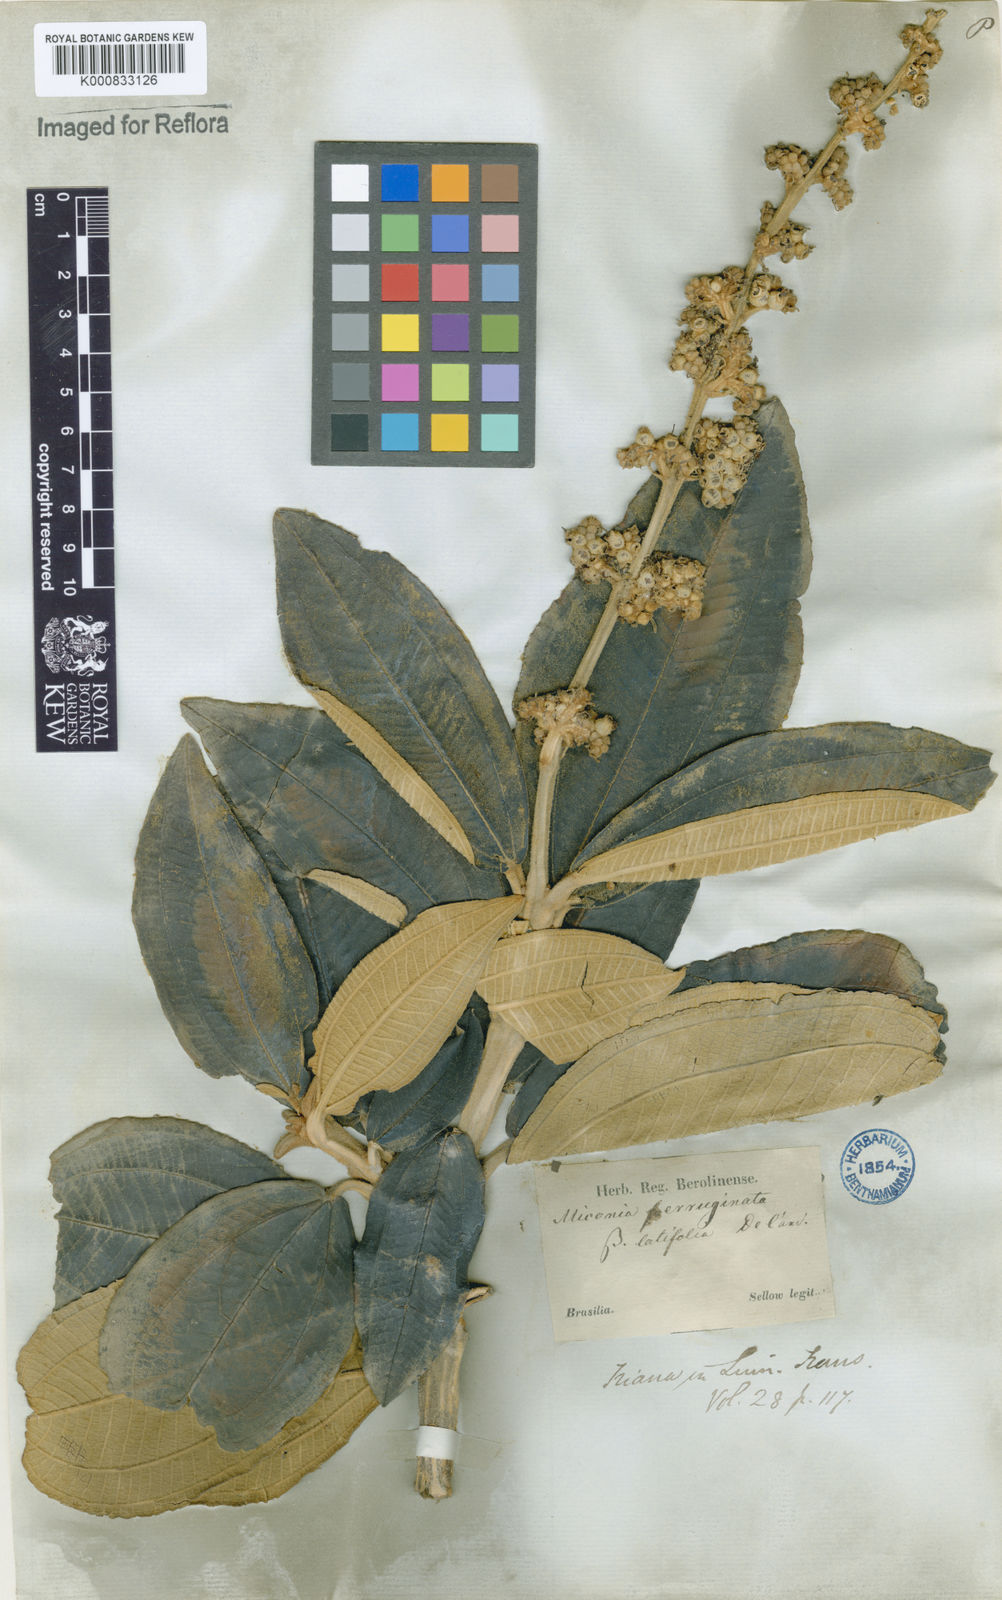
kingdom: Plantae
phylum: Tracheophyta
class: Magnoliopsida
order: Myrtales
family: Melastomataceae
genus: Miconia
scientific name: Miconia ferruginata
